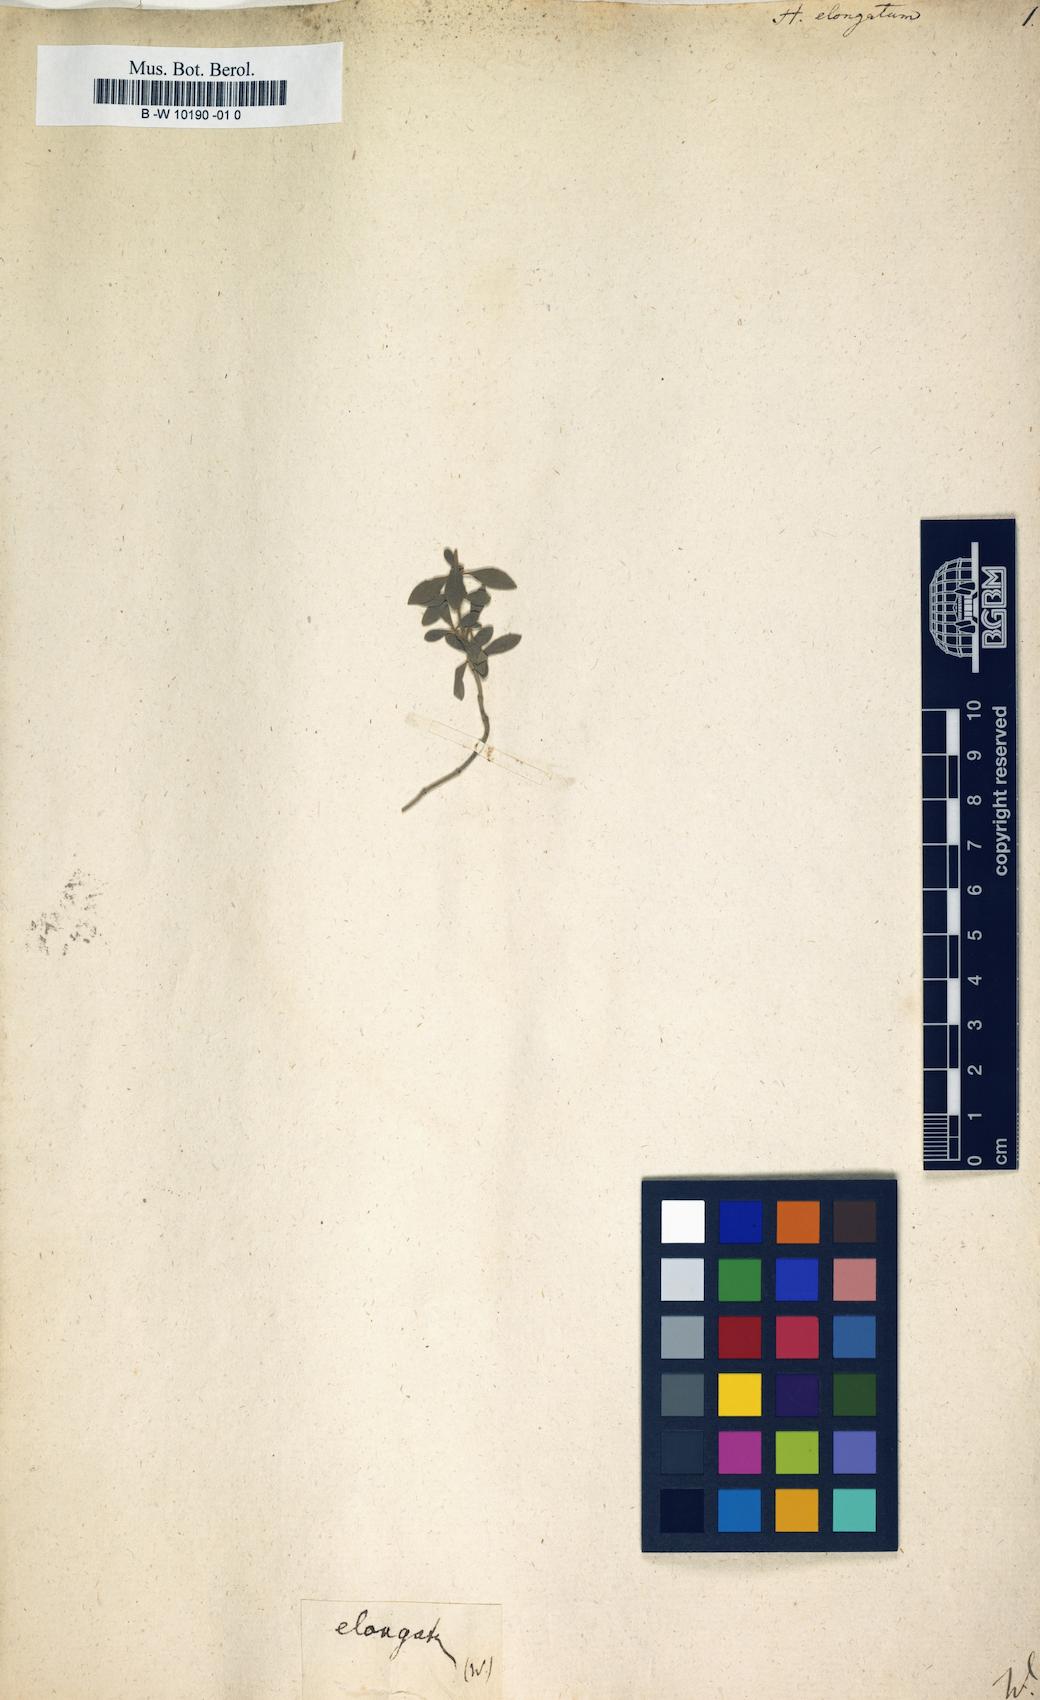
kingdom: Plantae
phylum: Tracheophyta
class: Magnoliopsida
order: Malvales
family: Cistaceae
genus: Halimium
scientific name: Halimium lasianthum
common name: Lisbon false sun-rose
